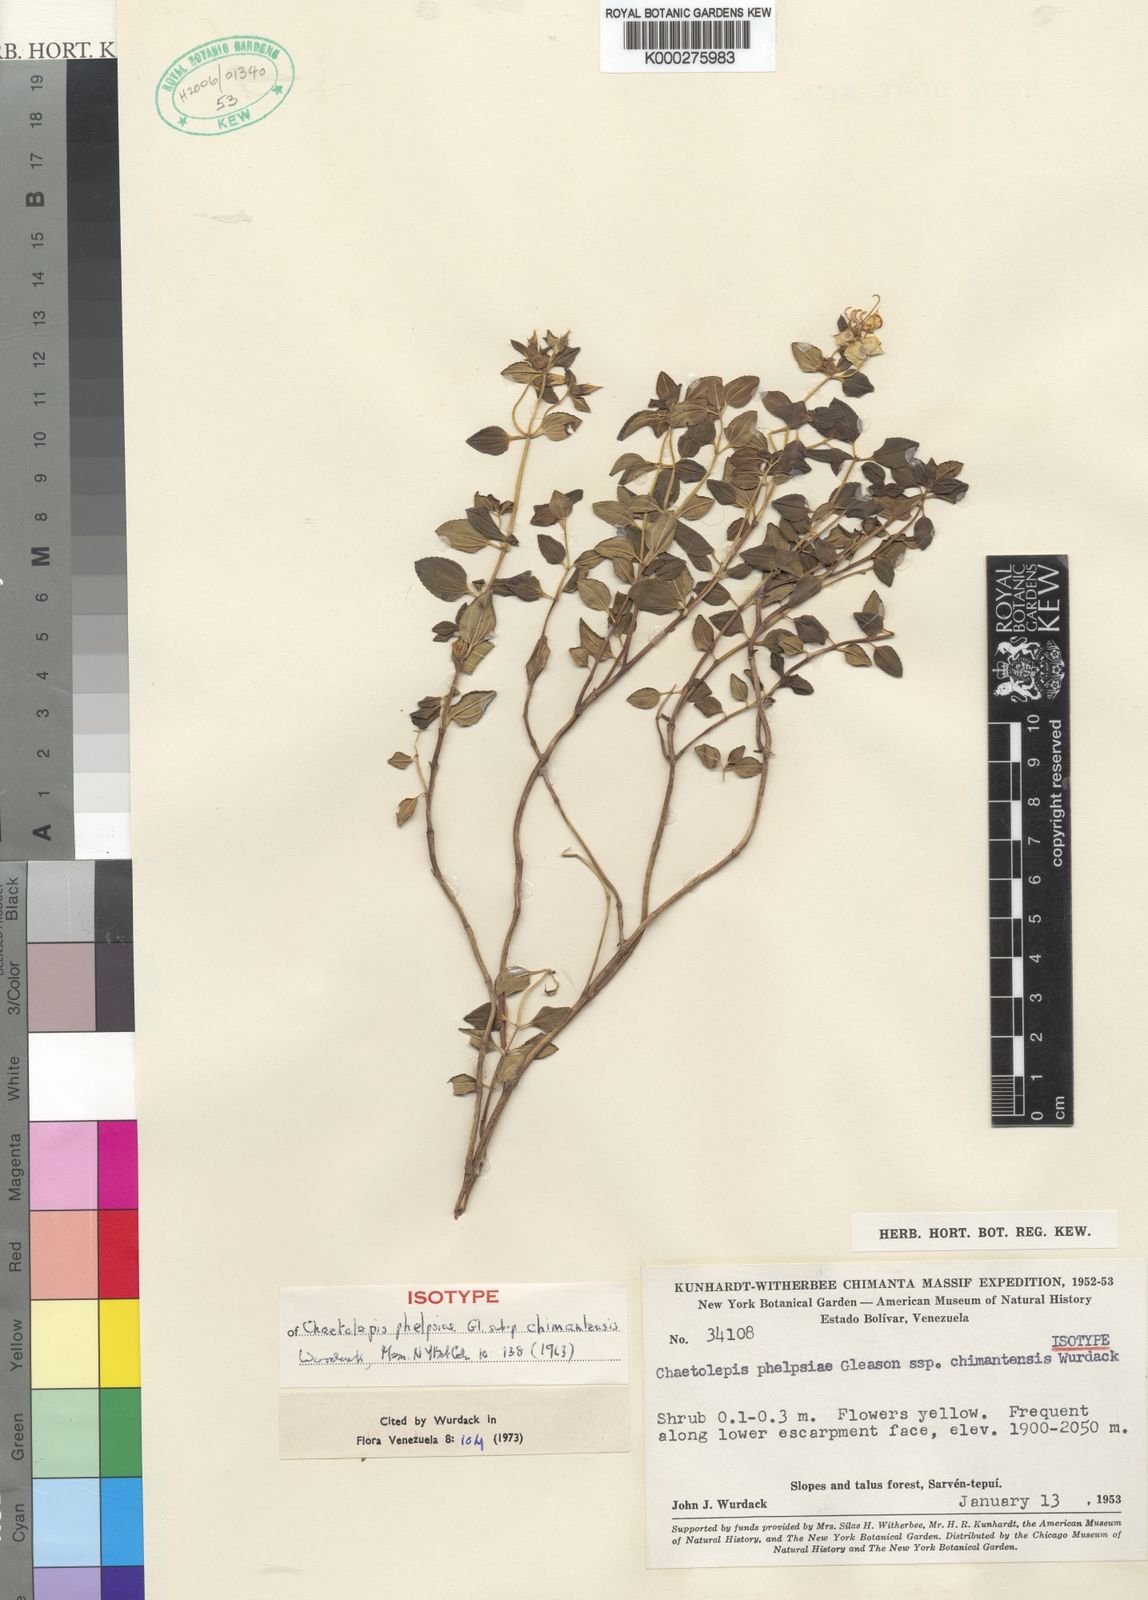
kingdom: Plantae
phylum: Tracheophyta
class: Magnoliopsida
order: Myrtales
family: Melastomataceae
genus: Chaetolepis
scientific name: Chaetolepis phelpsiae
